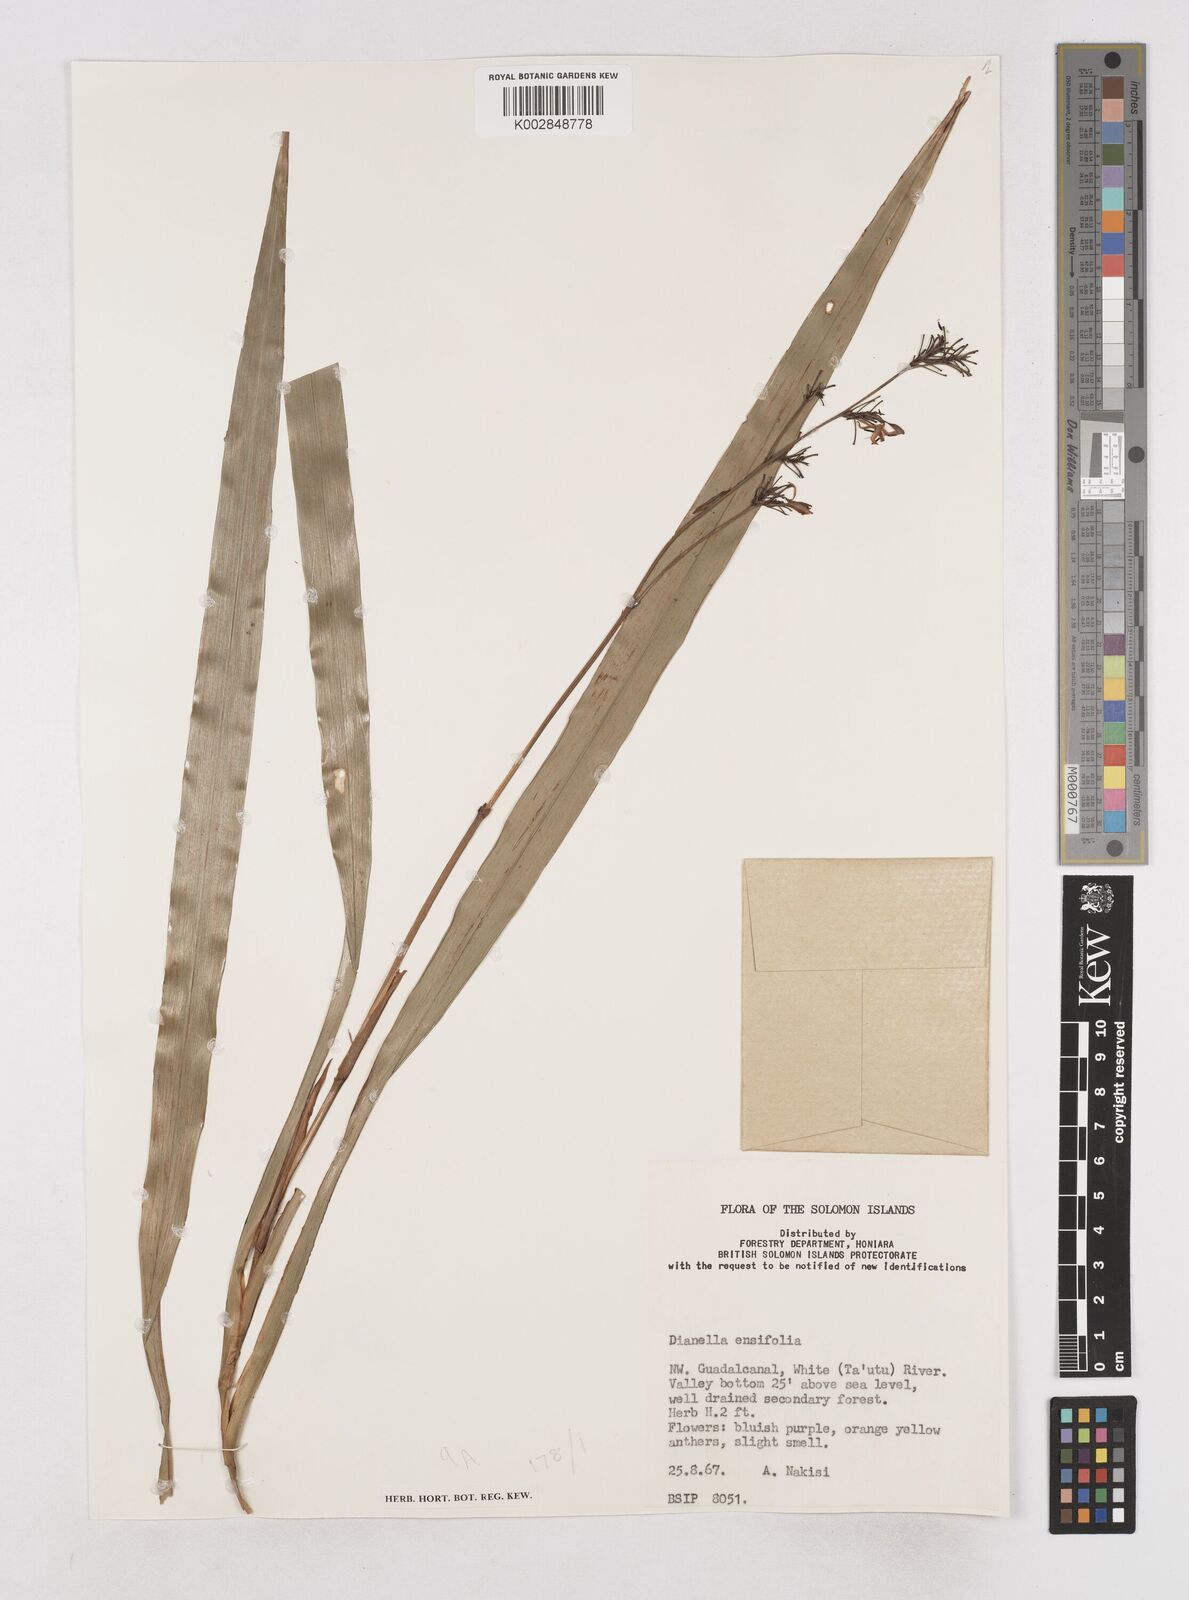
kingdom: Plantae
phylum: Tracheophyta
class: Liliopsida
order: Asparagales
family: Asphodelaceae
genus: Dianella
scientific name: Dianella ensifolia
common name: New zealand lilyplant
